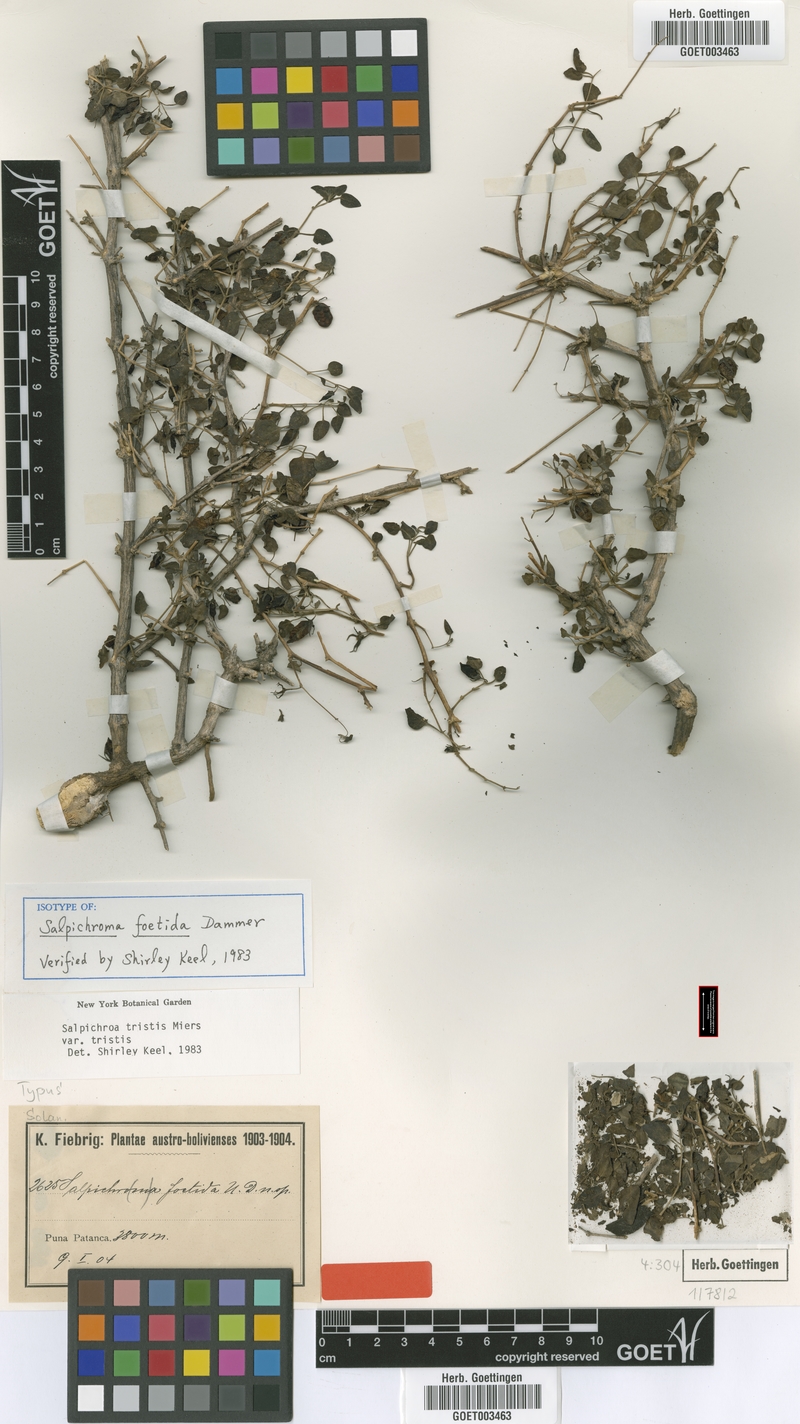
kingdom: Plantae
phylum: Tracheophyta
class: Magnoliopsida
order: Solanales
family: Solanaceae
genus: Salpichroa
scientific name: Salpichroa tristis
